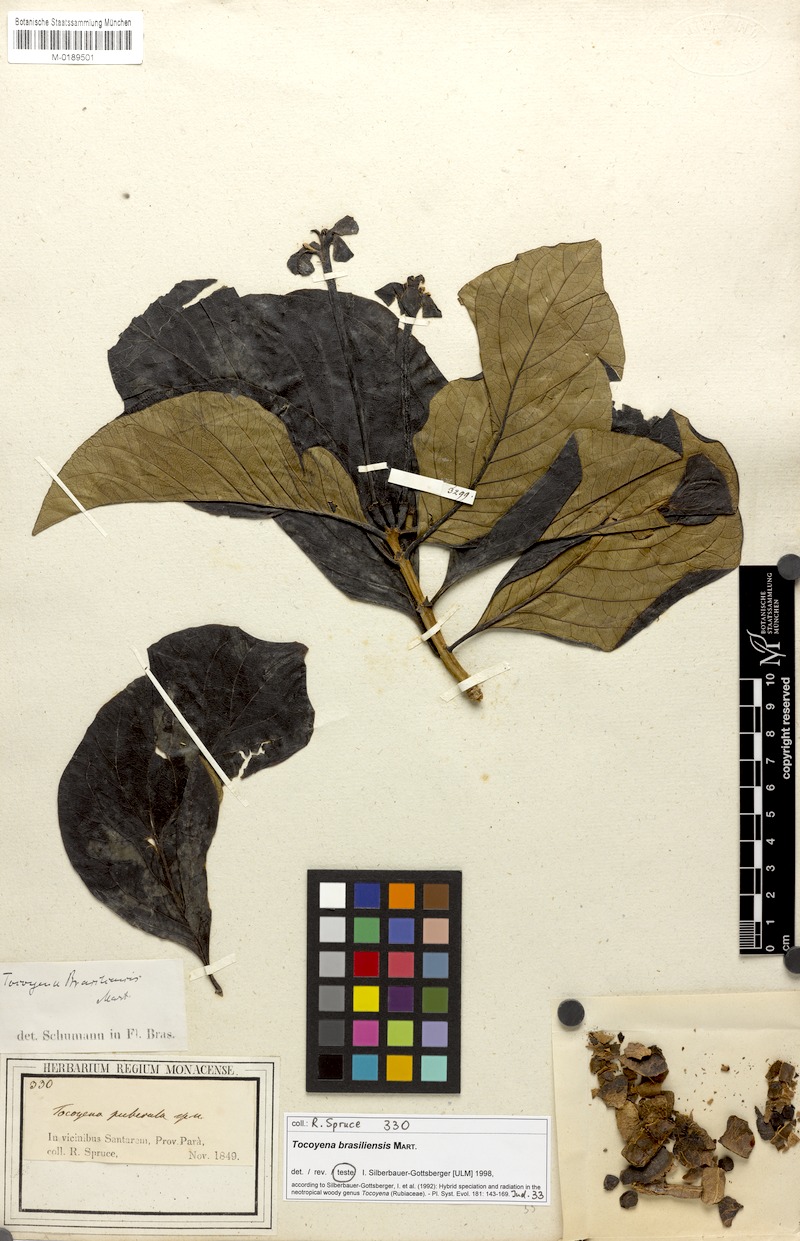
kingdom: Plantae
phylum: Tracheophyta
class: Magnoliopsida
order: Gentianales
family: Rubiaceae
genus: Tocoyena
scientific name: Tocoyena sprucei
